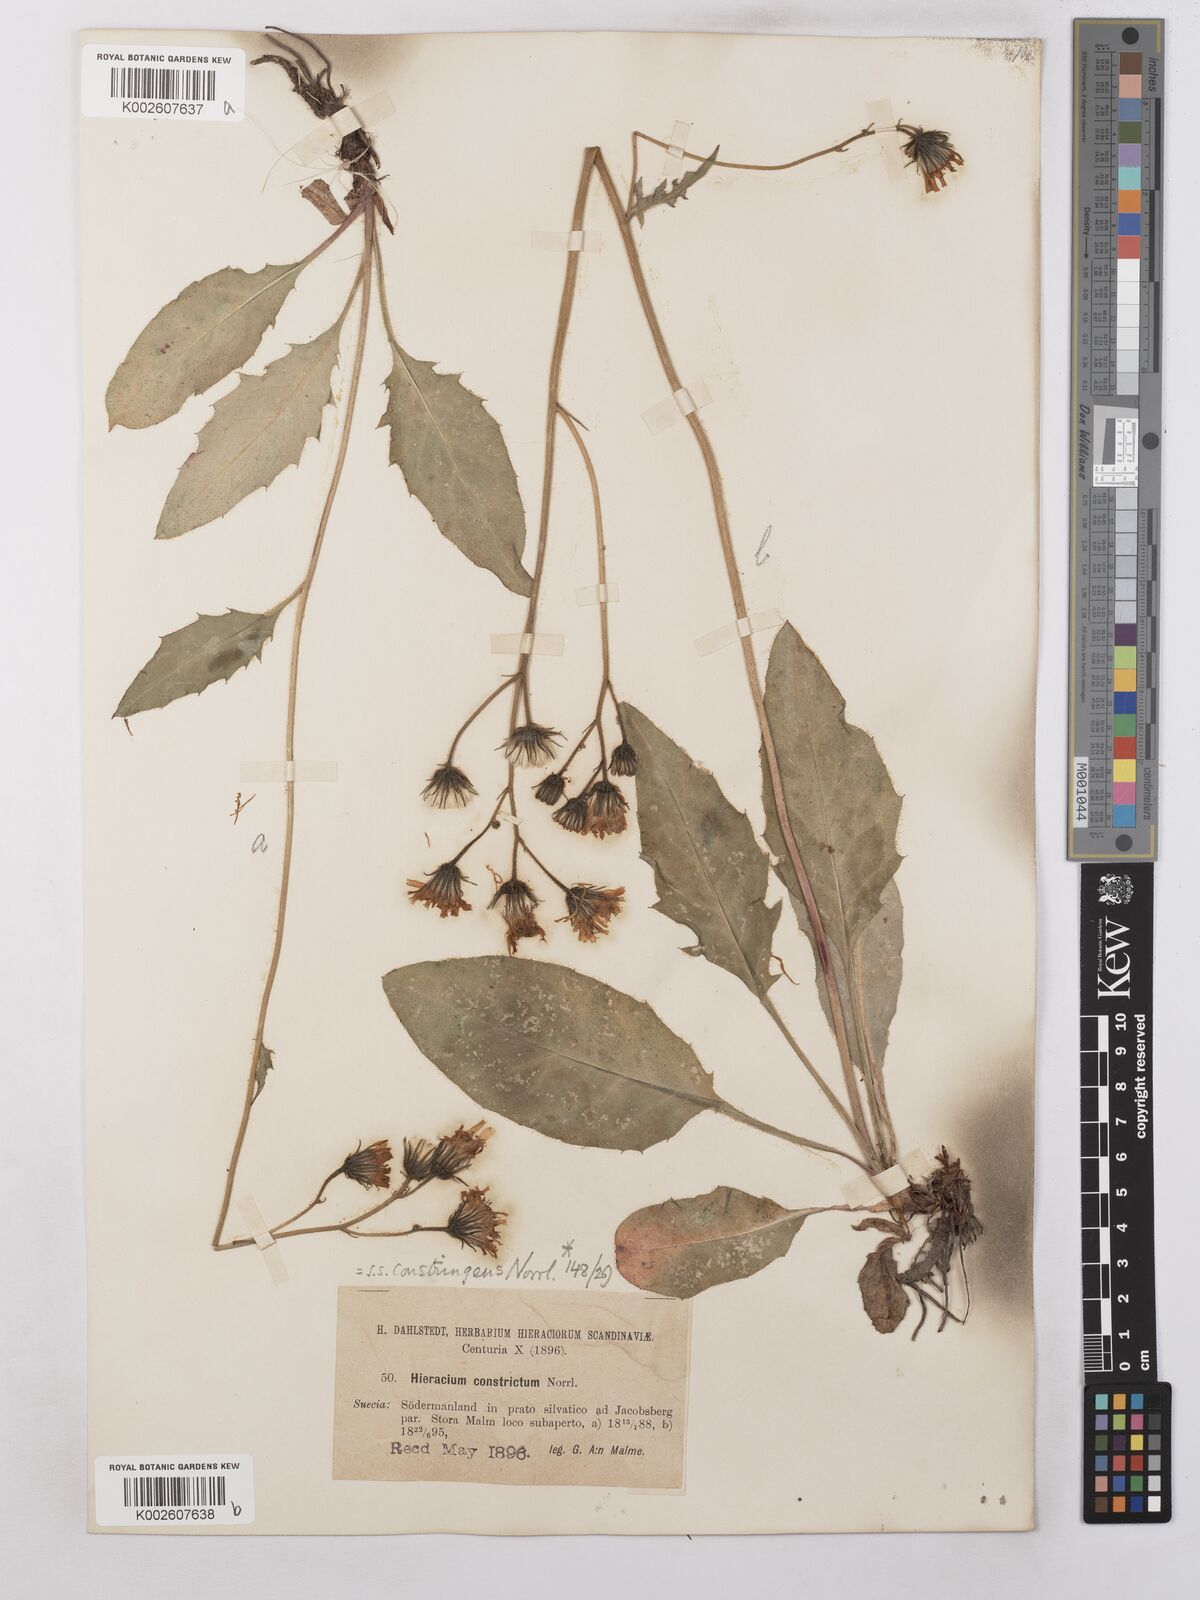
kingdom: Plantae
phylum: Tracheophyta
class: Magnoliopsida
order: Asterales
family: Asteraceae
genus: Hieracium
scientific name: Hieracium subramosum
